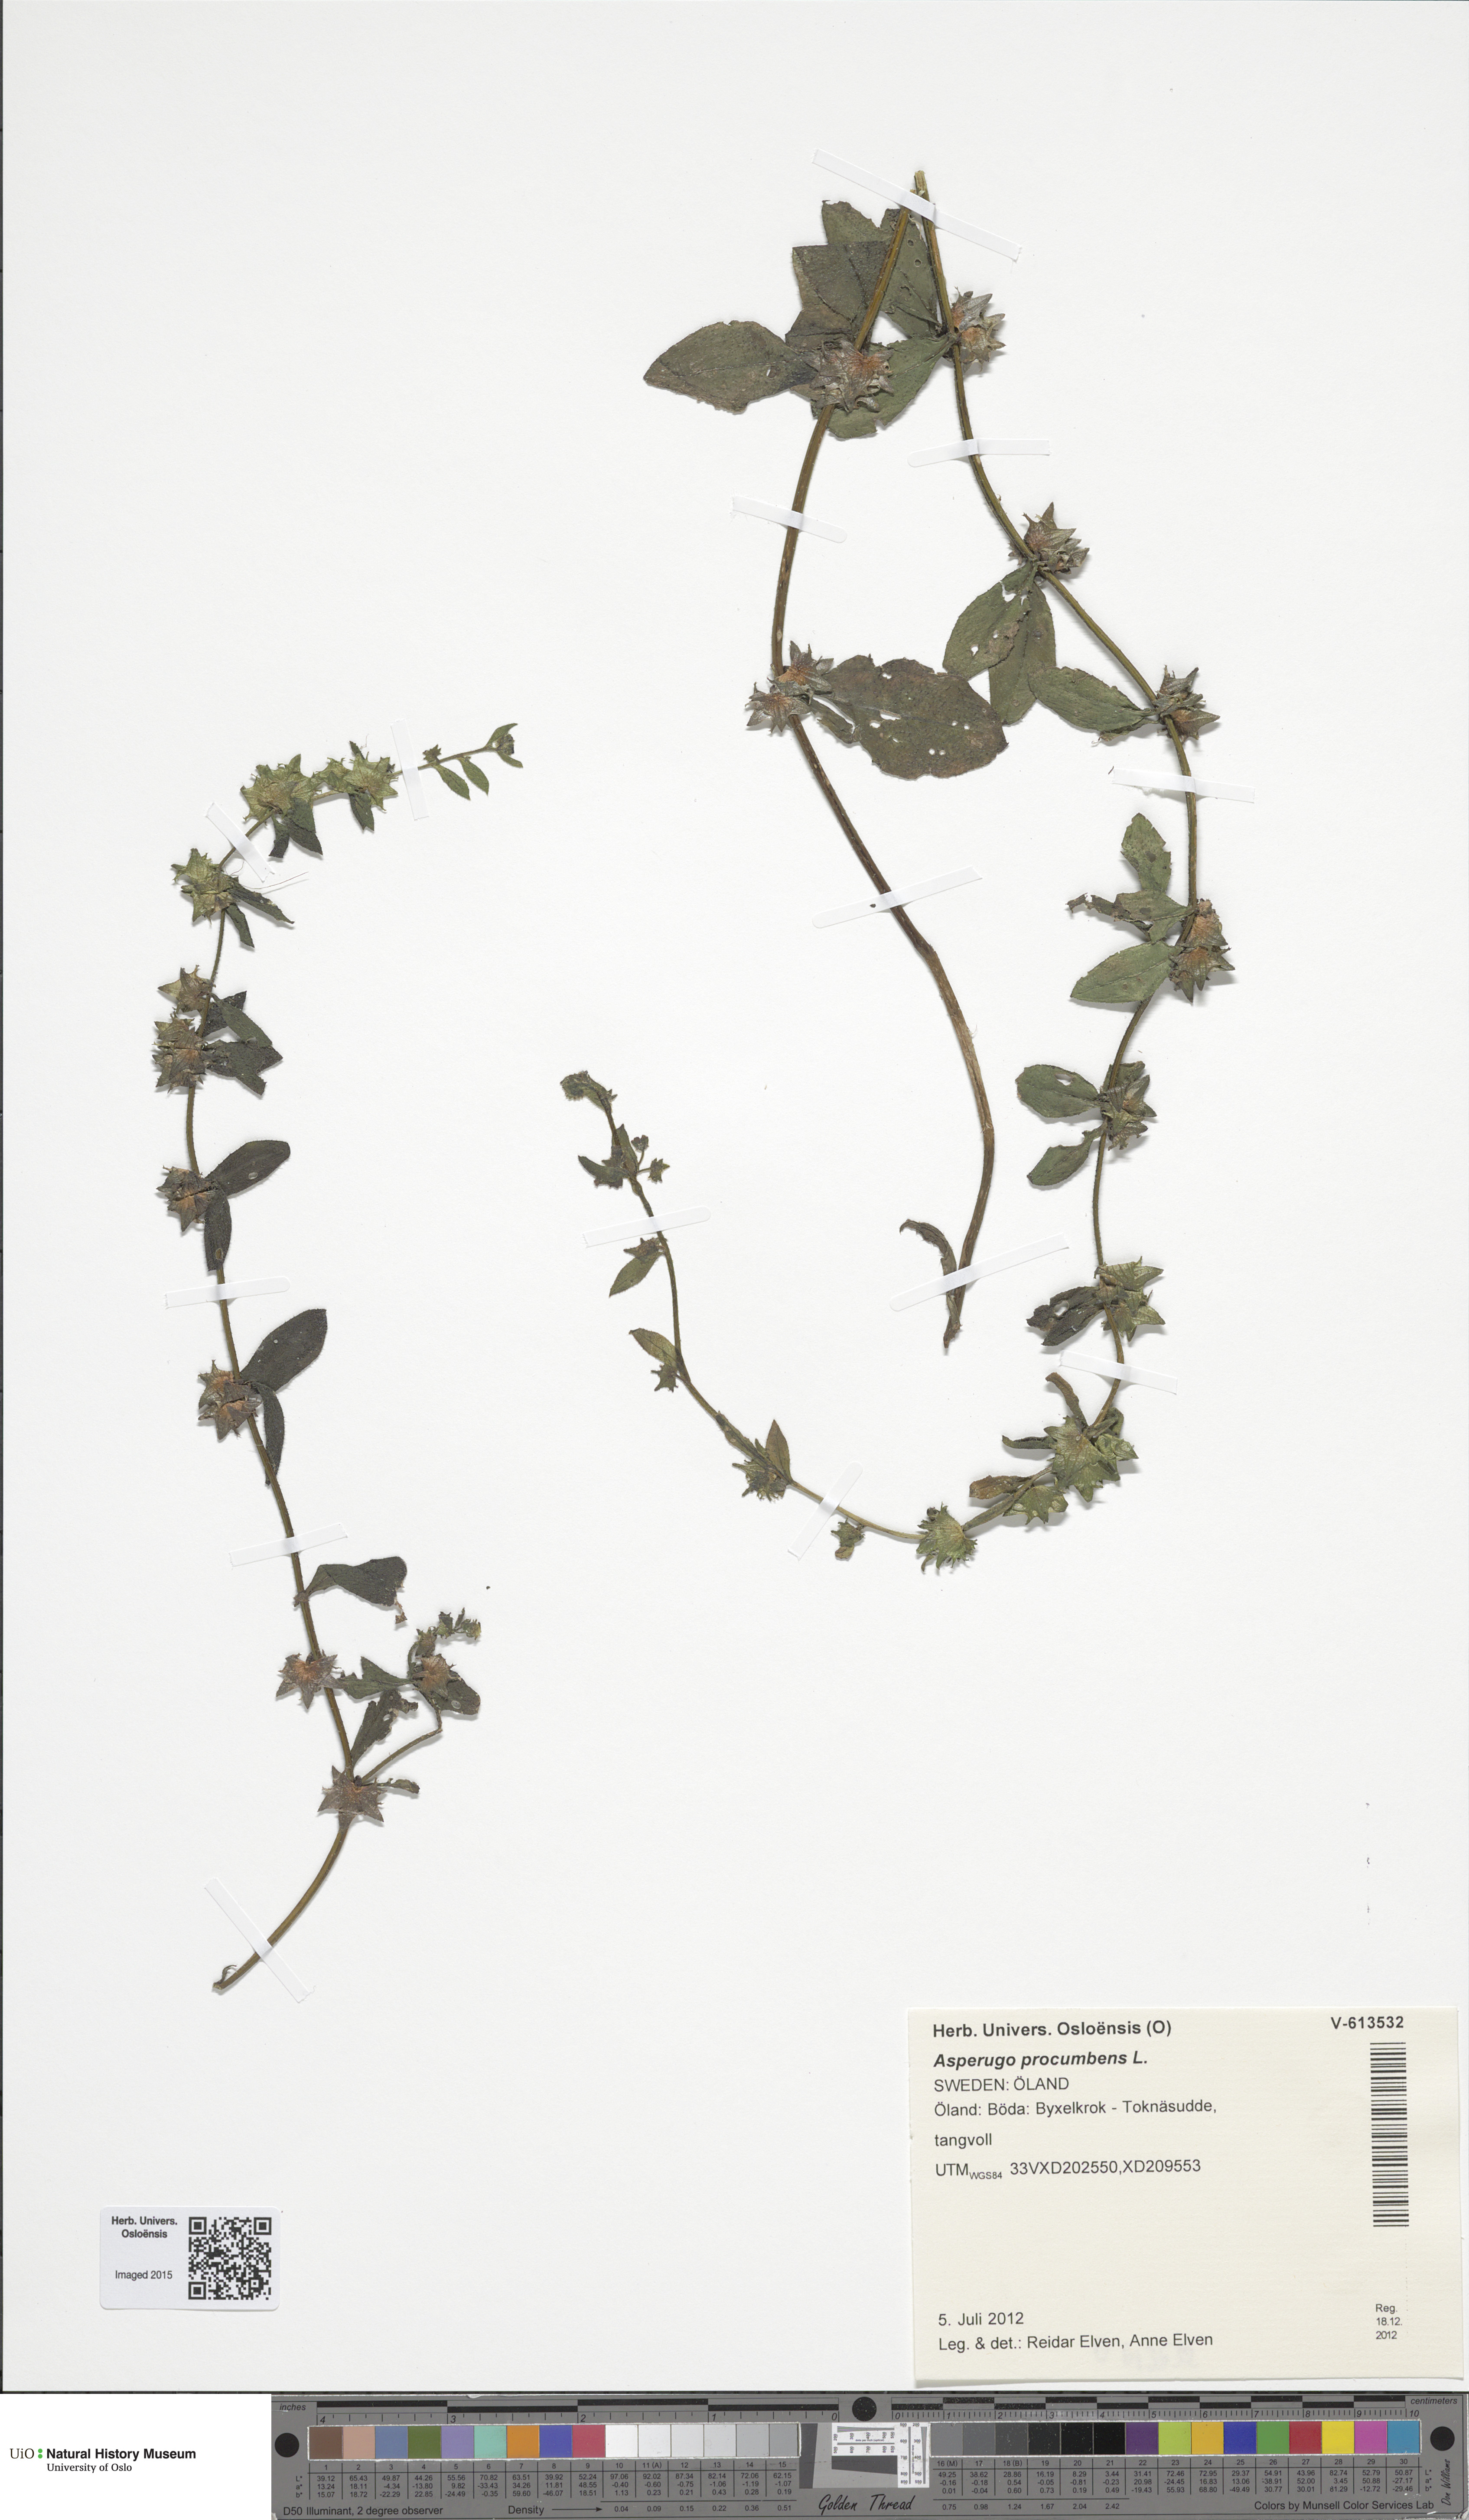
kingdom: Plantae
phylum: Tracheophyta
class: Magnoliopsida
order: Boraginales
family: Boraginaceae
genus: Asperugo
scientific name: Asperugo procumbens
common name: Madwort
